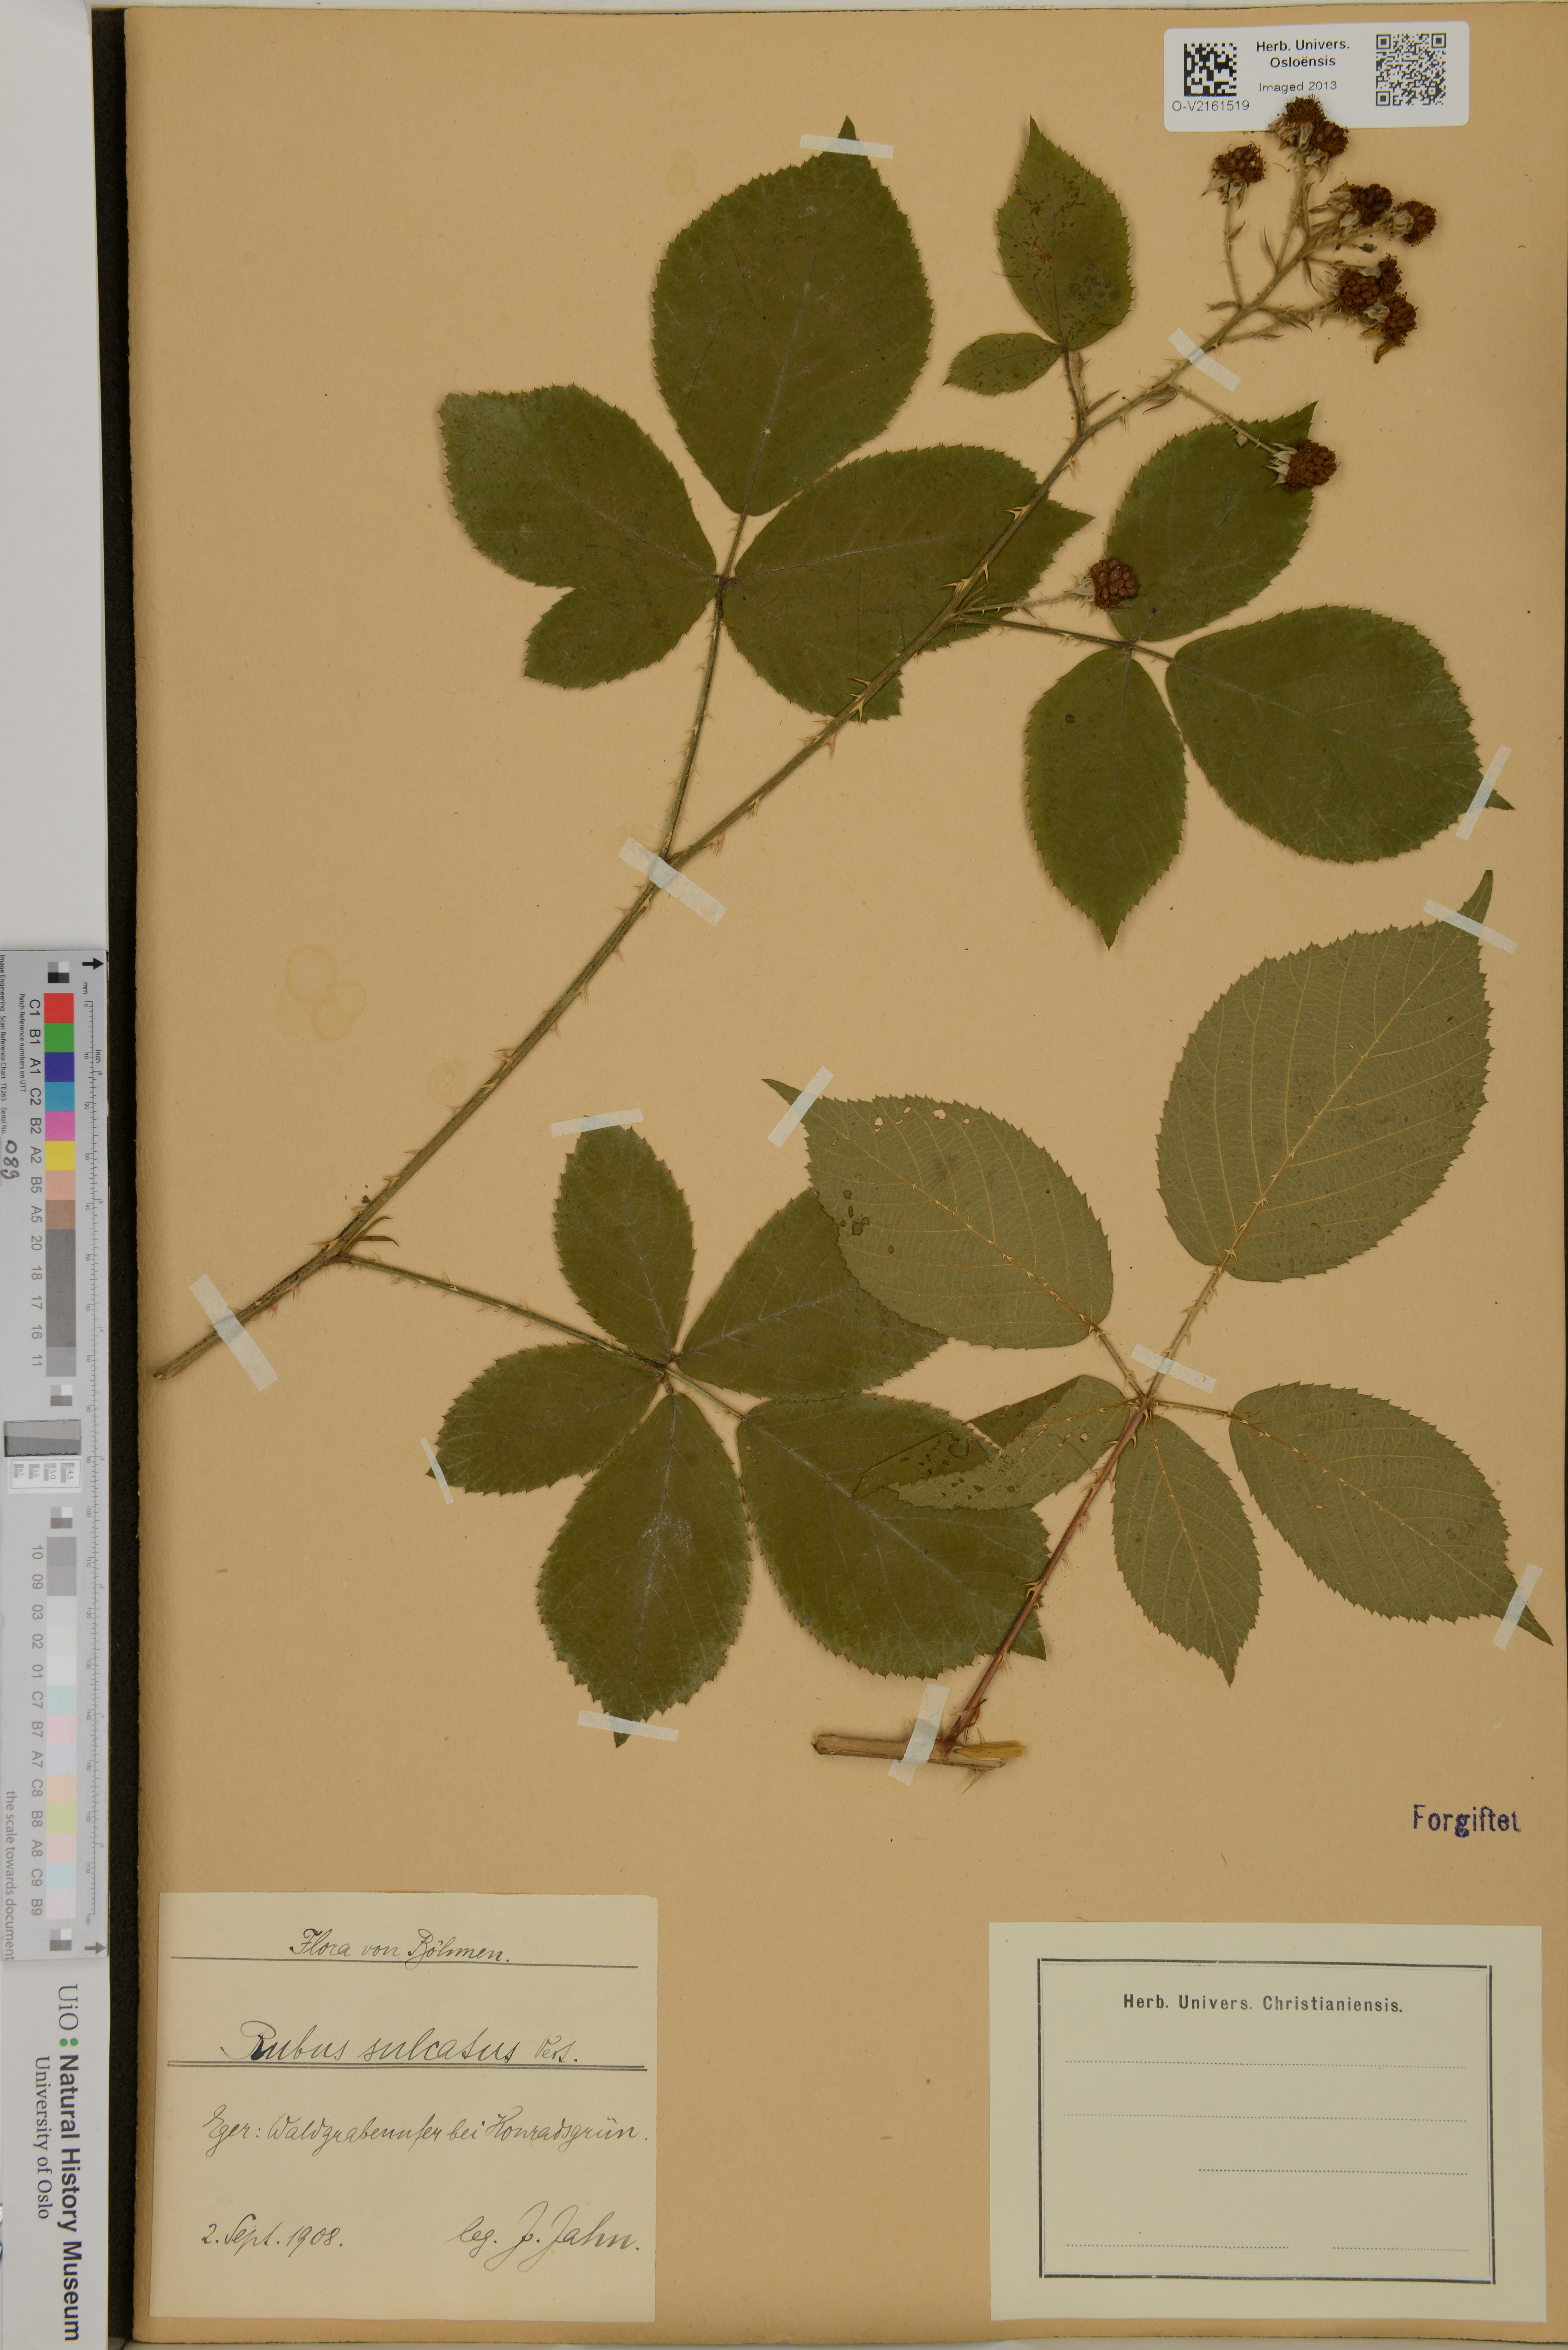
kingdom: Plantae
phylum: Tracheophyta
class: Magnoliopsida
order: Rosales
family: Rosaceae
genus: Rubus
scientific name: Rubus sulcatus
